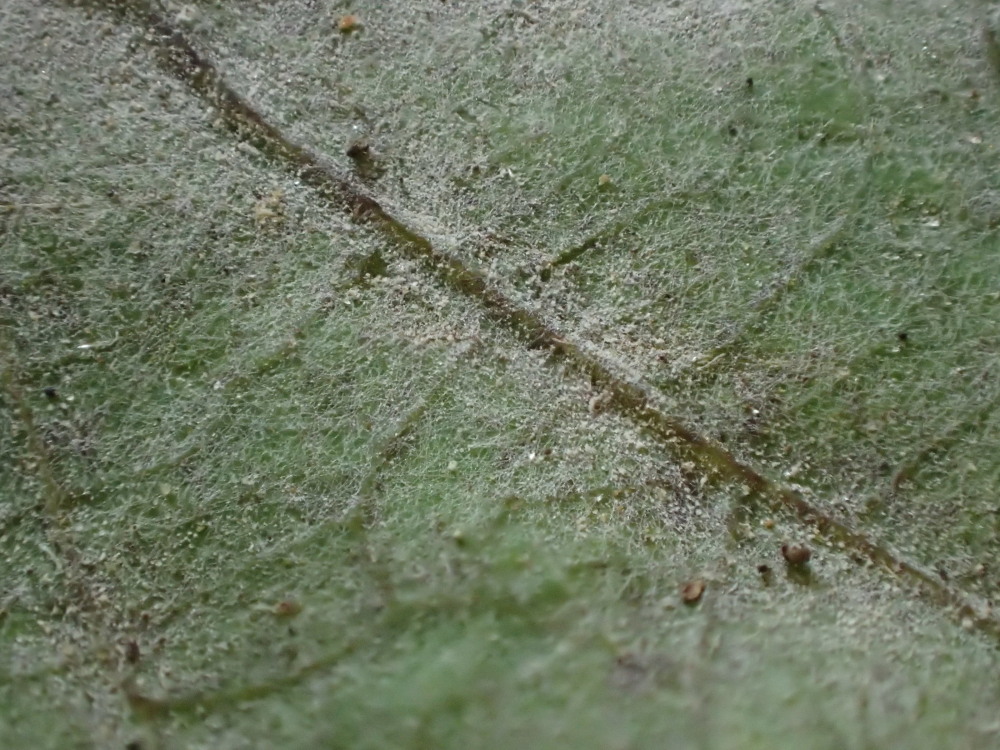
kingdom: Fungi
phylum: Ascomycota
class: Leotiomycetes
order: Helotiales
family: Erysiphaceae
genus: Erysiphe
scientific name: Erysiphe alphitoides
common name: ege-meldug
